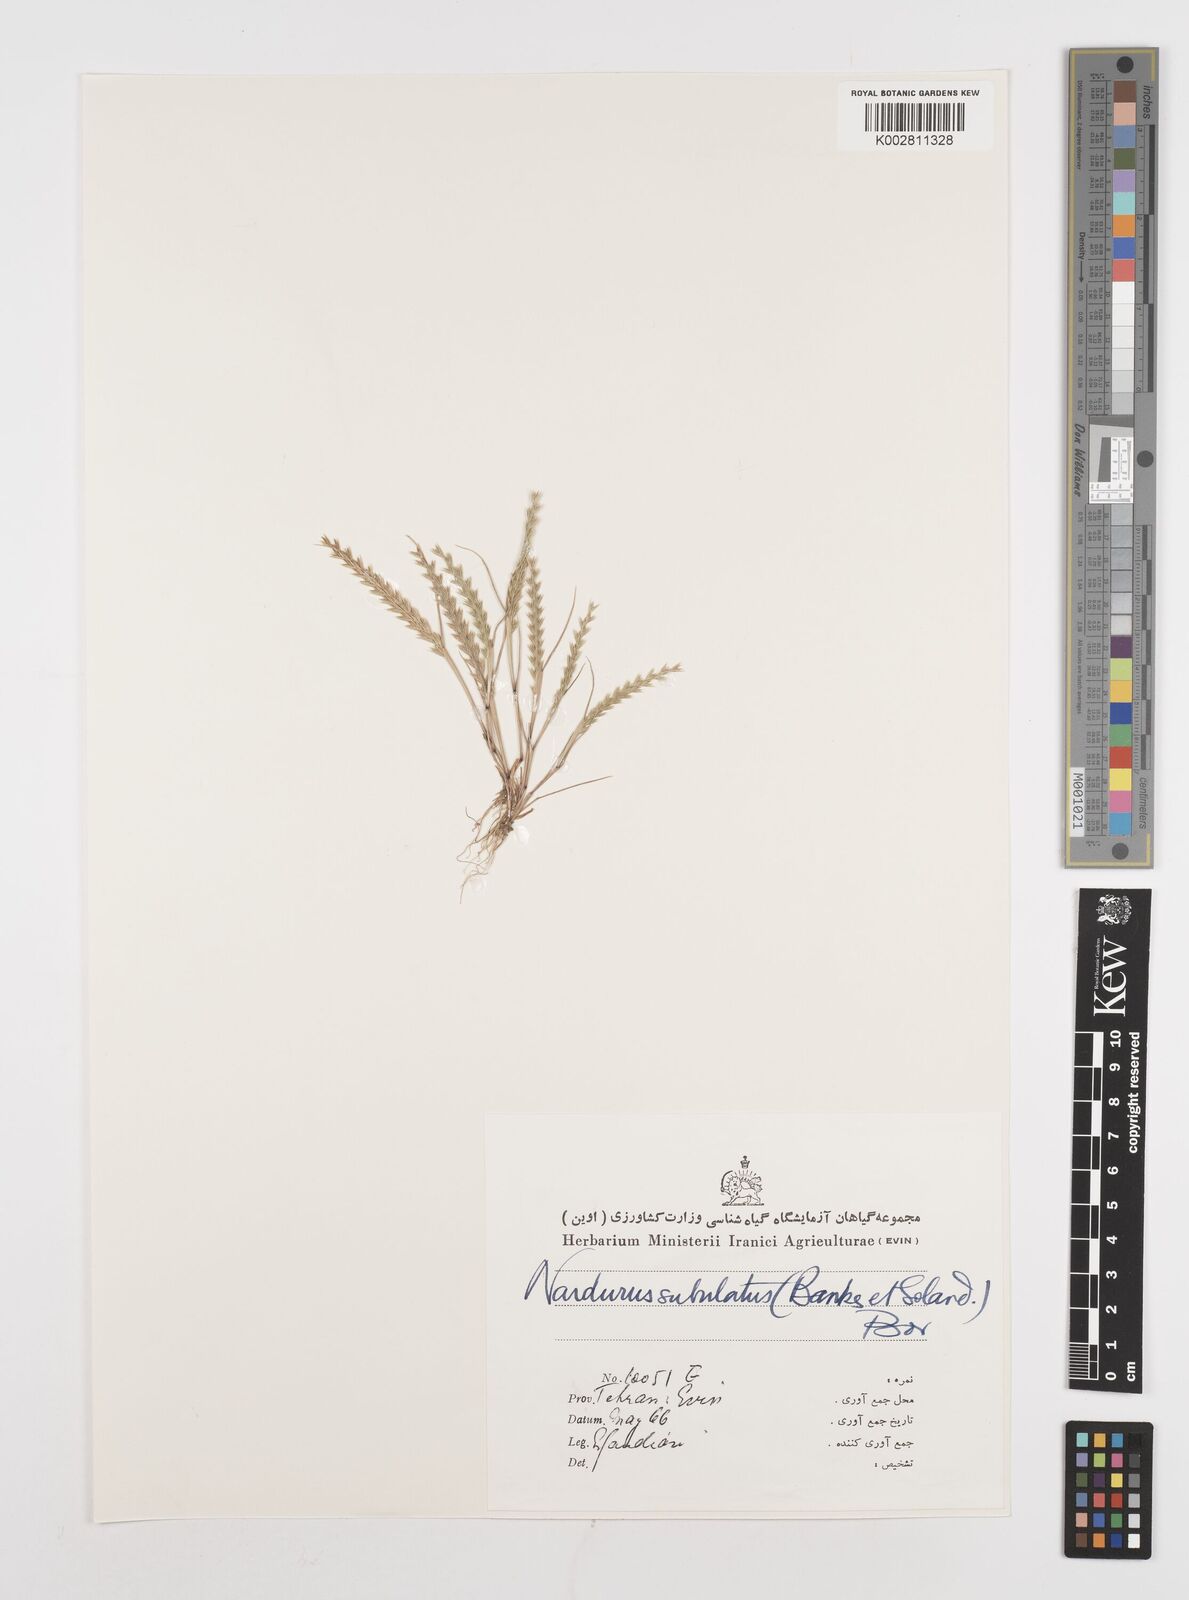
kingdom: Plantae
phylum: Tracheophyta
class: Liliopsida
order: Poales
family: Poaceae
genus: Festuca
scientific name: Festuca orientalis
